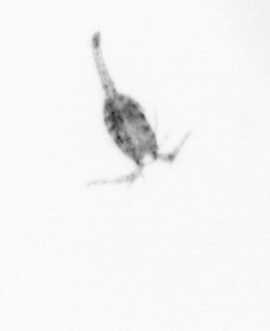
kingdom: Animalia
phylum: Arthropoda
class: Copepoda
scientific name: Copepoda
